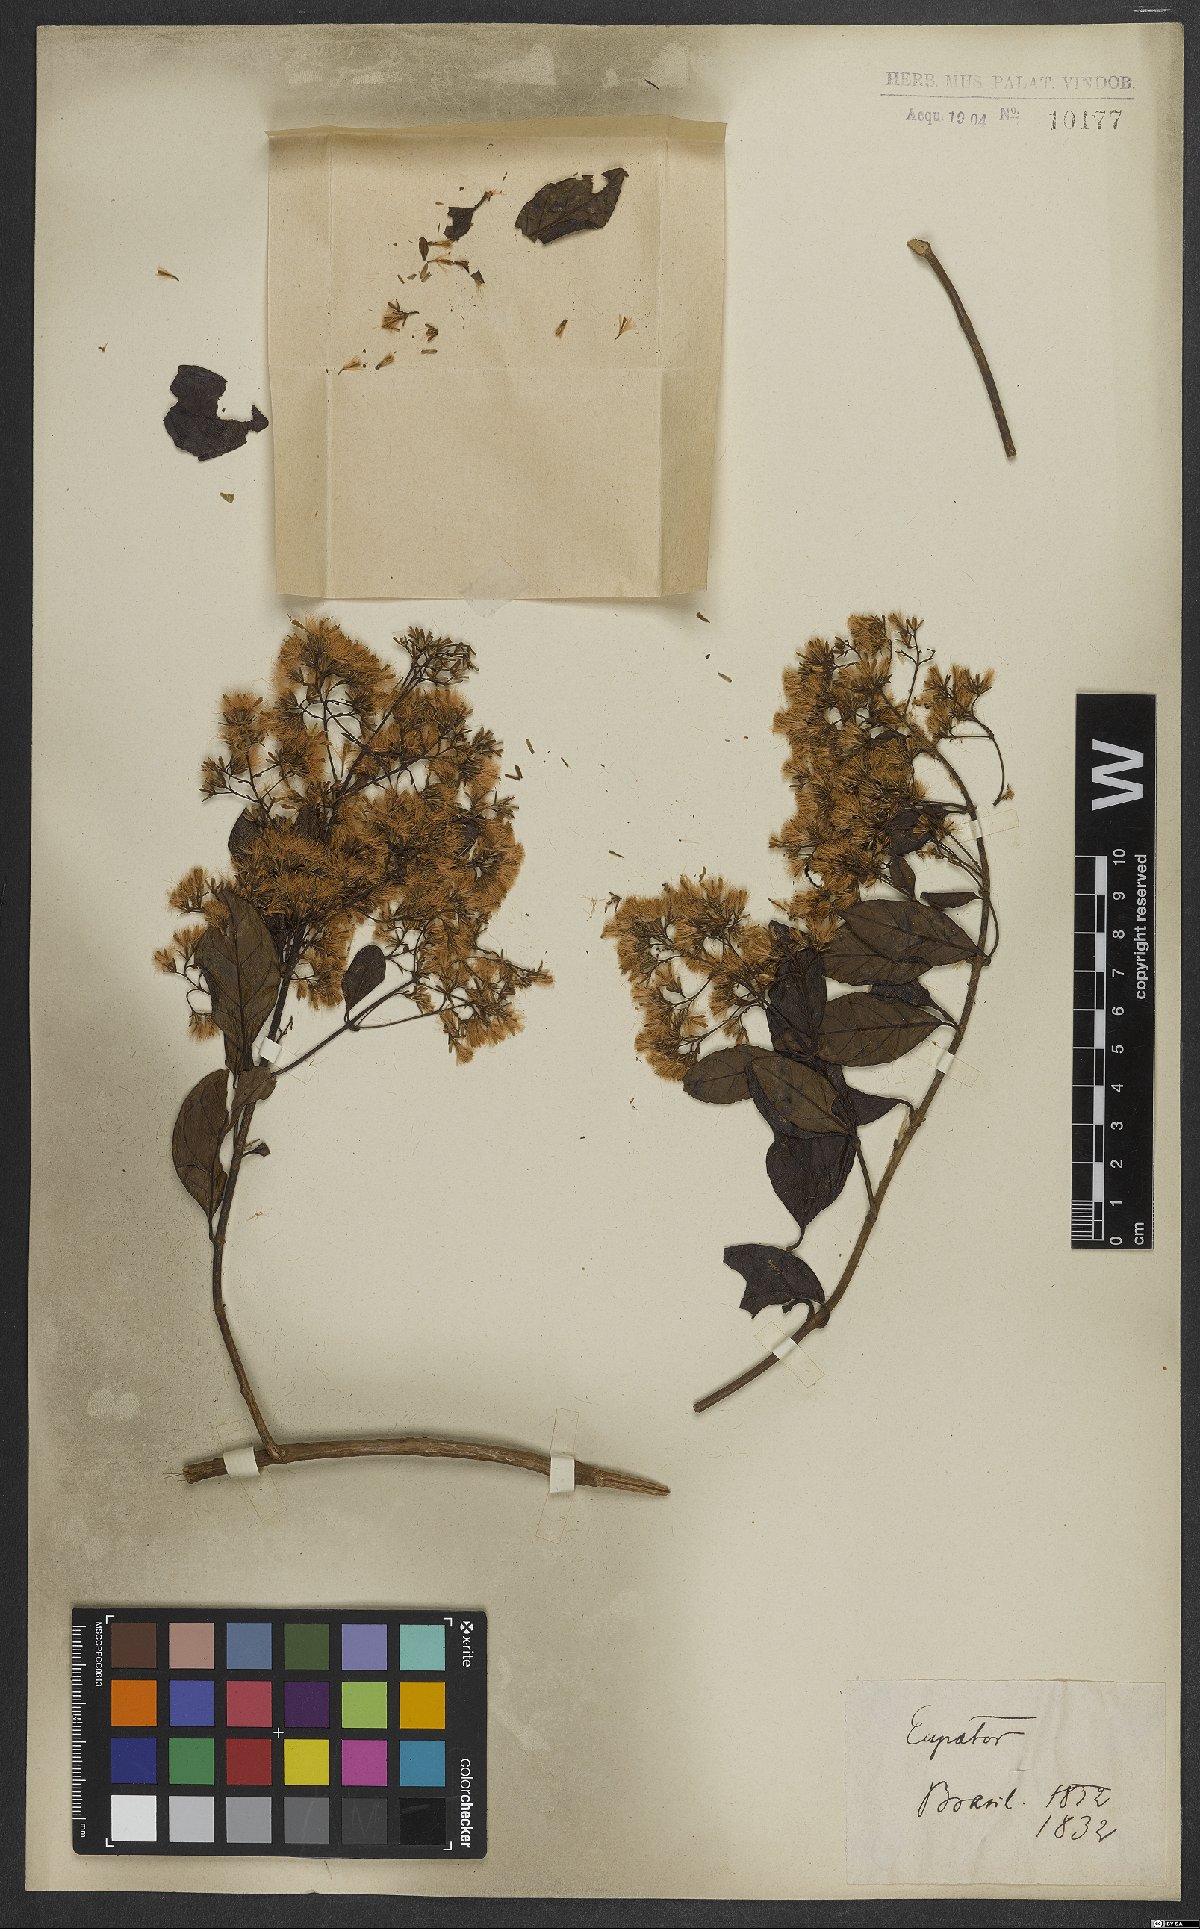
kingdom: Plantae
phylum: Tracheophyta
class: Magnoliopsida
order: Asterales
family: Asteraceae
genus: Eupatorium
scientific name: Eupatorium
